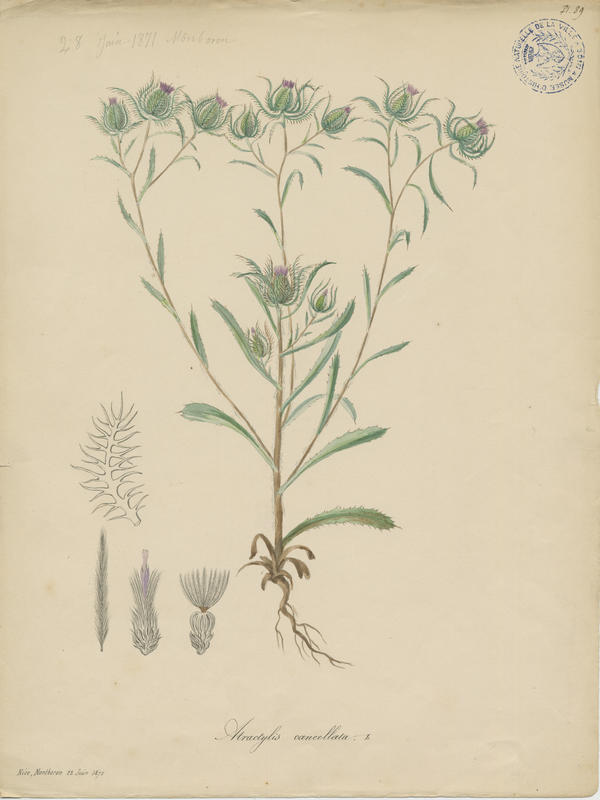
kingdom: Plantae
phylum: Tracheophyta
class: Magnoliopsida
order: Asterales
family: Asteraceae
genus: Atractylis
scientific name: Atractylis cancellata
